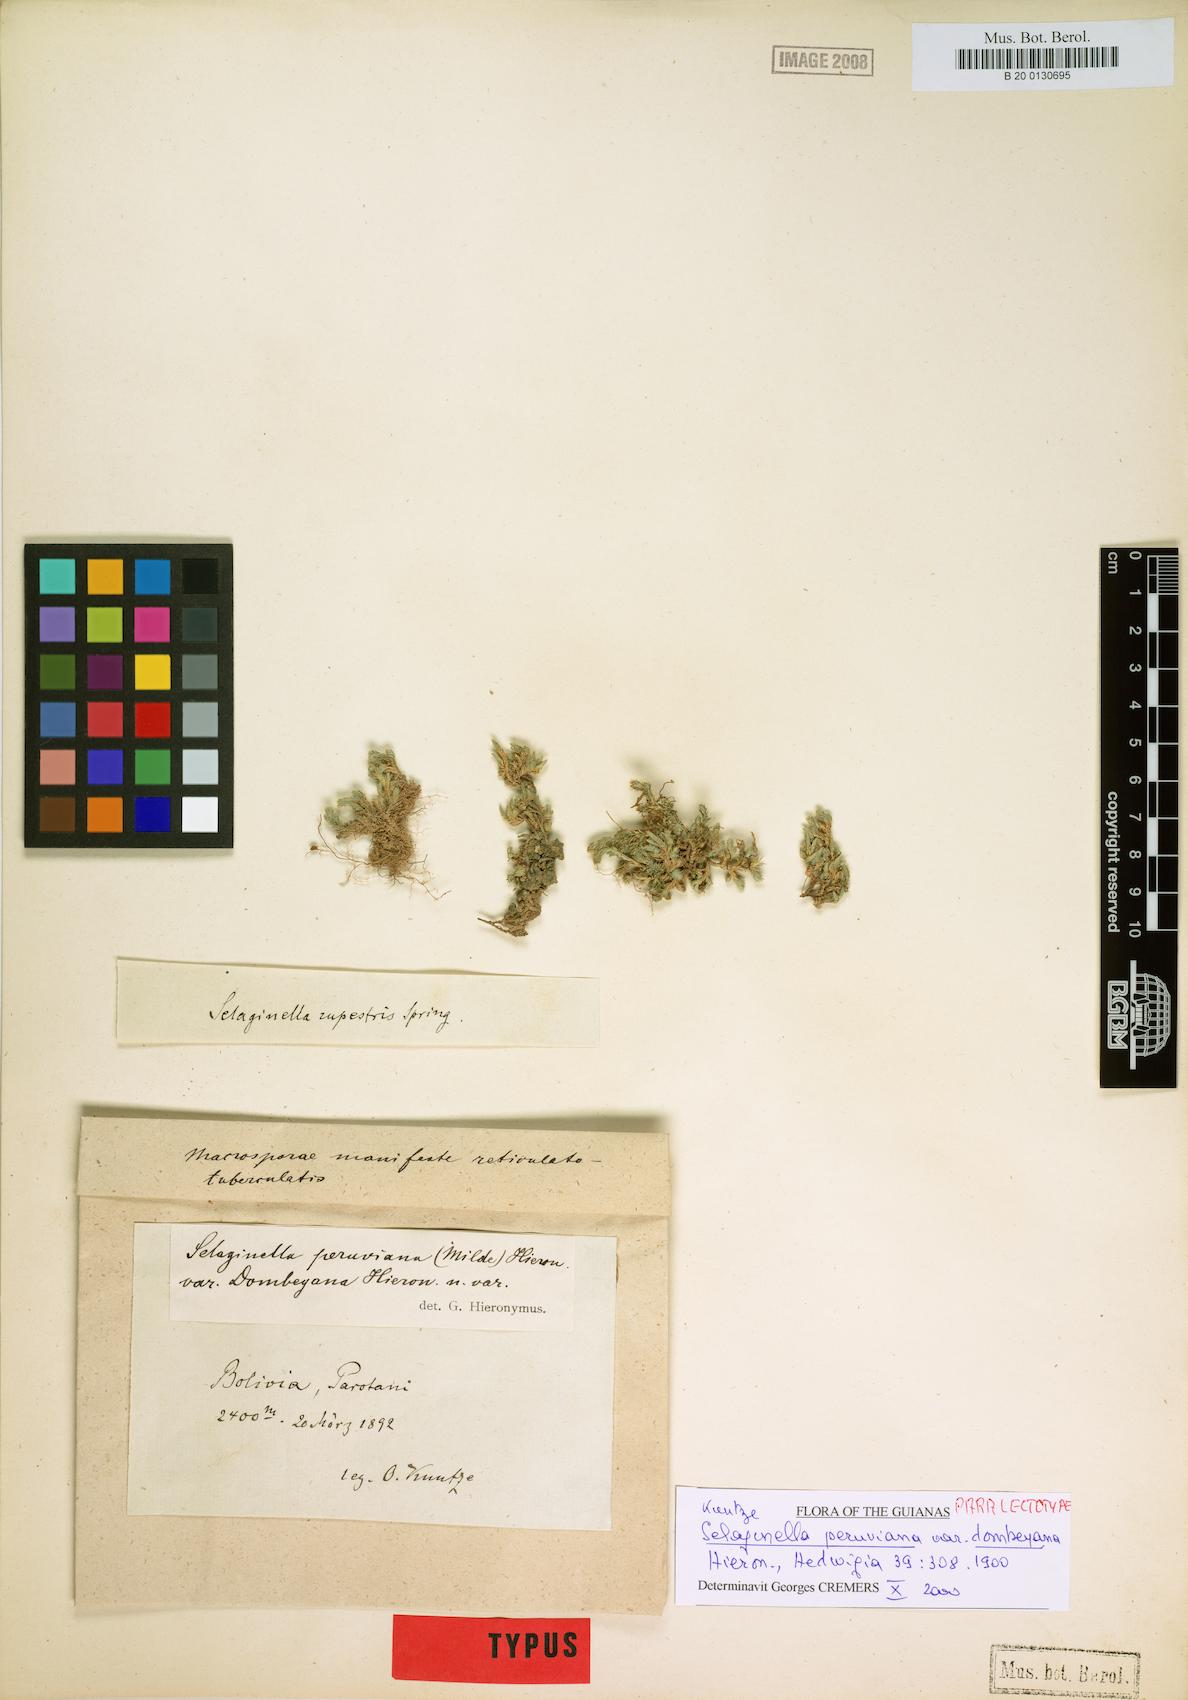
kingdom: Plantae
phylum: Tracheophyta
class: Lycopodiopsida
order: Selaginellales
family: Selaginellaceae
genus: Selaginella
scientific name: Selaginella peruviana
